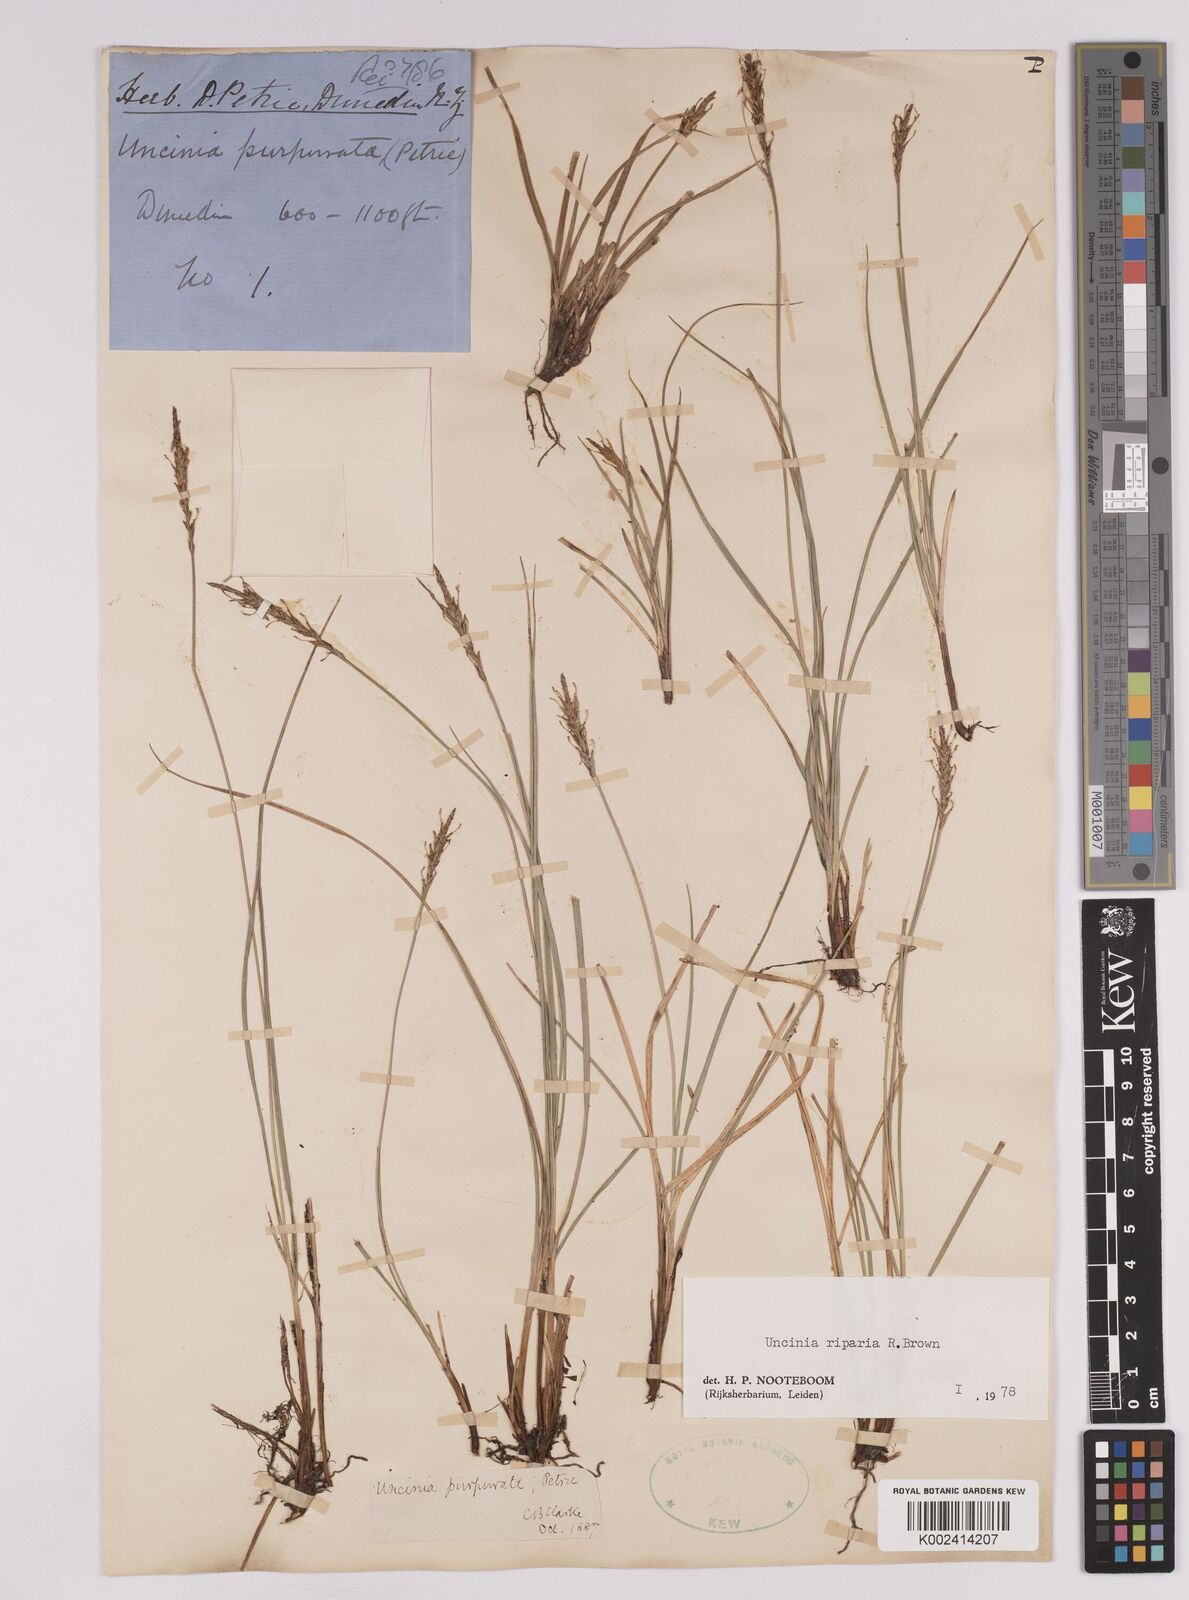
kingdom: Plantae
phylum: Tracheophyta
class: Liliopsida
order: Poales
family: Cyperaceae
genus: Carex
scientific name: Carex purpurata
